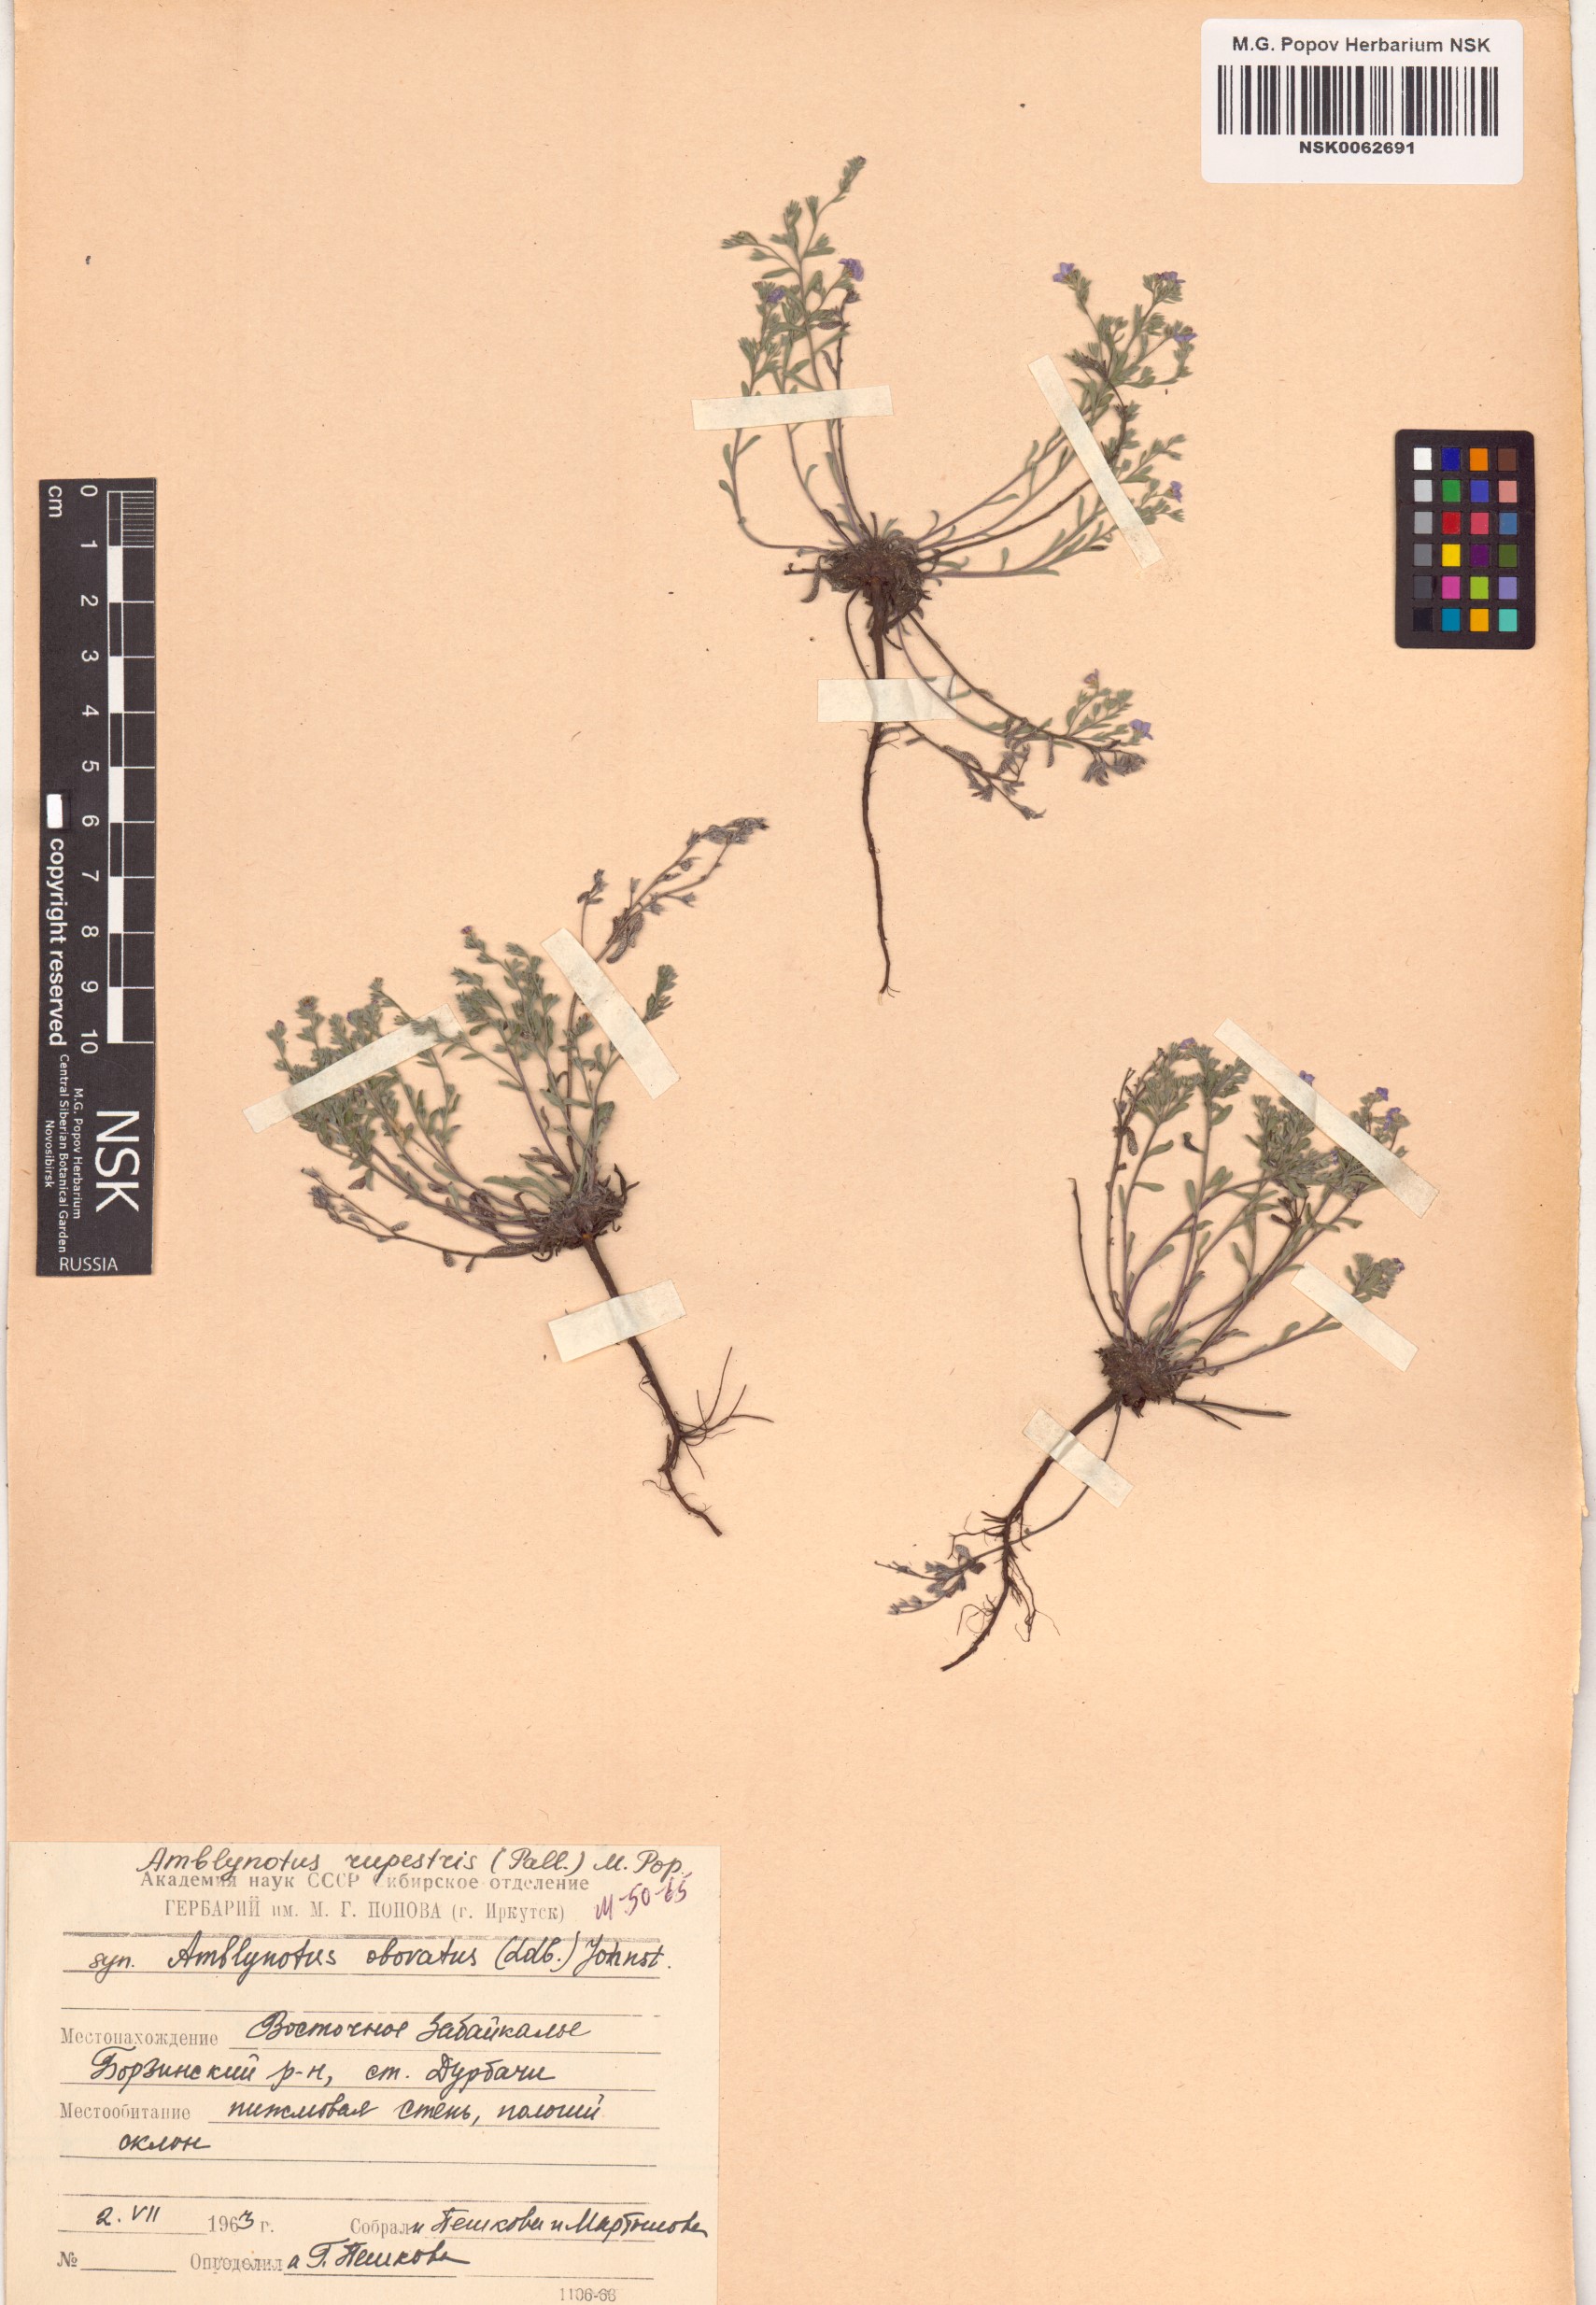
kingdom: Plantae
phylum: Tracheophyta
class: Magnoliopsida
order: Boraginales
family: Boraginaceae
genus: Eritrichium
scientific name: Eritrichium rupestre
